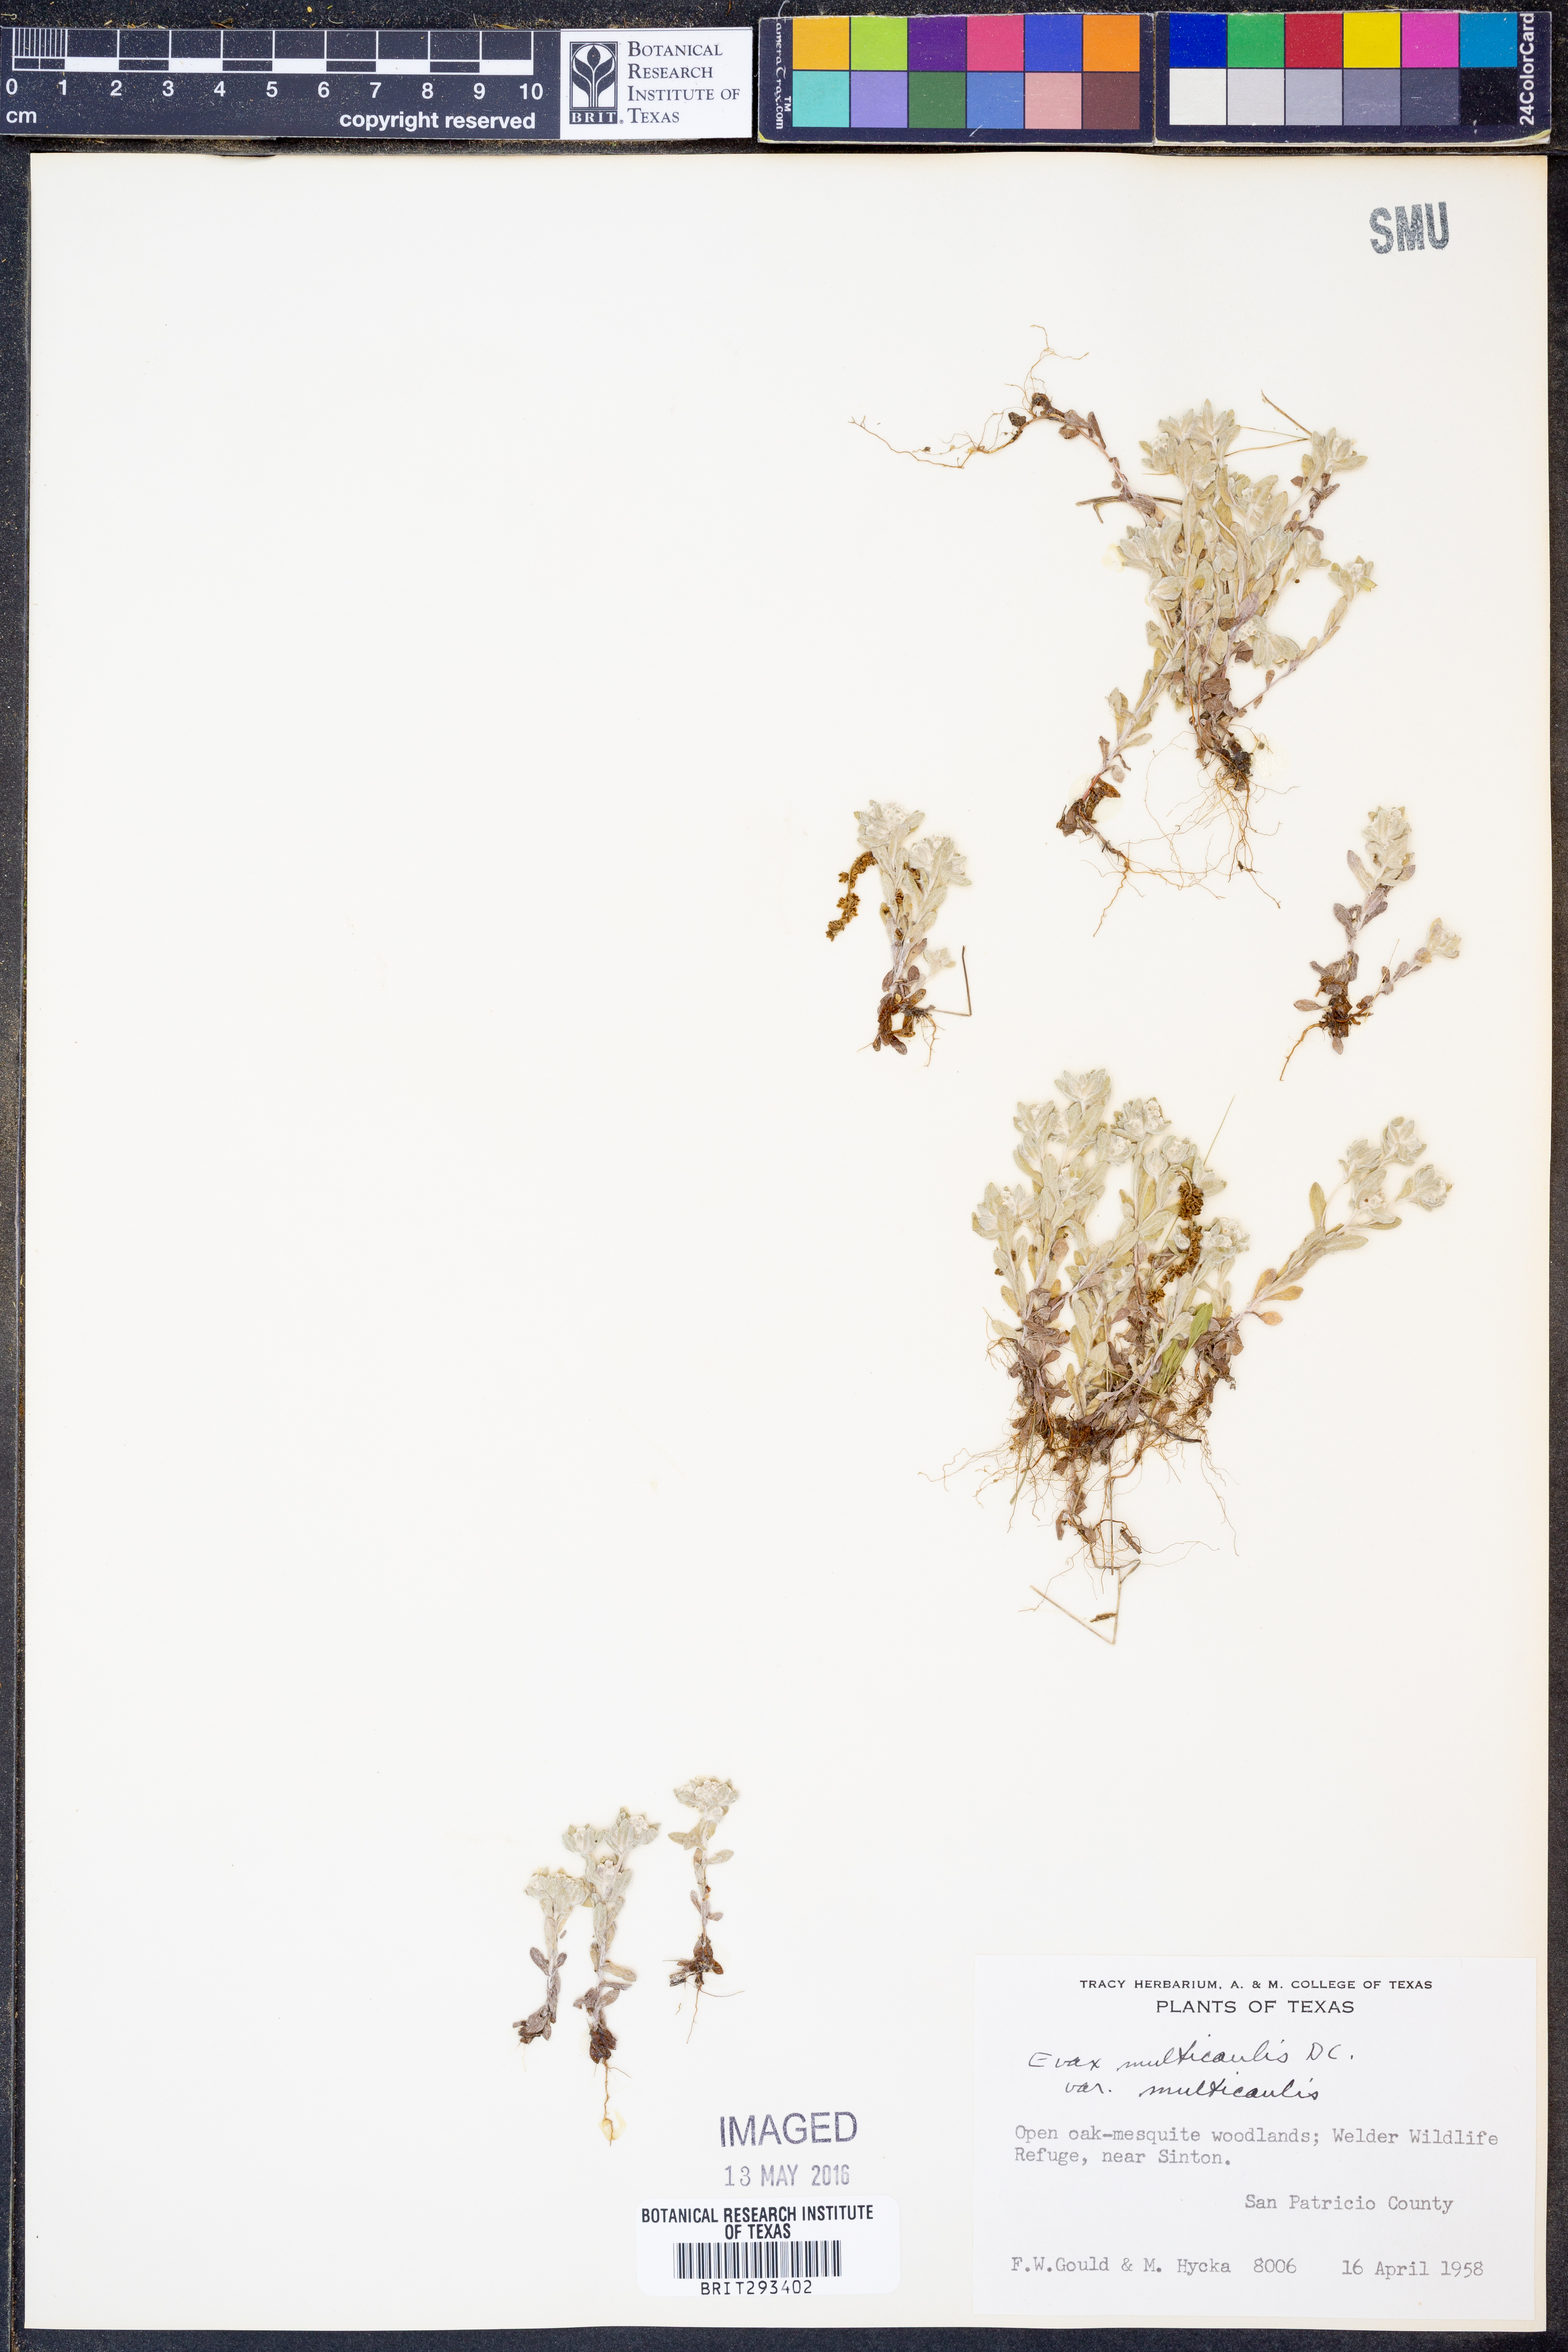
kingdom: Plantae
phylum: Tracheophyta
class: Magnoliopsida
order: Asterales
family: Asteraceae
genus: Diaperia
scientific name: Diaperia verna
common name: Many-stem rabbit-tobacco
